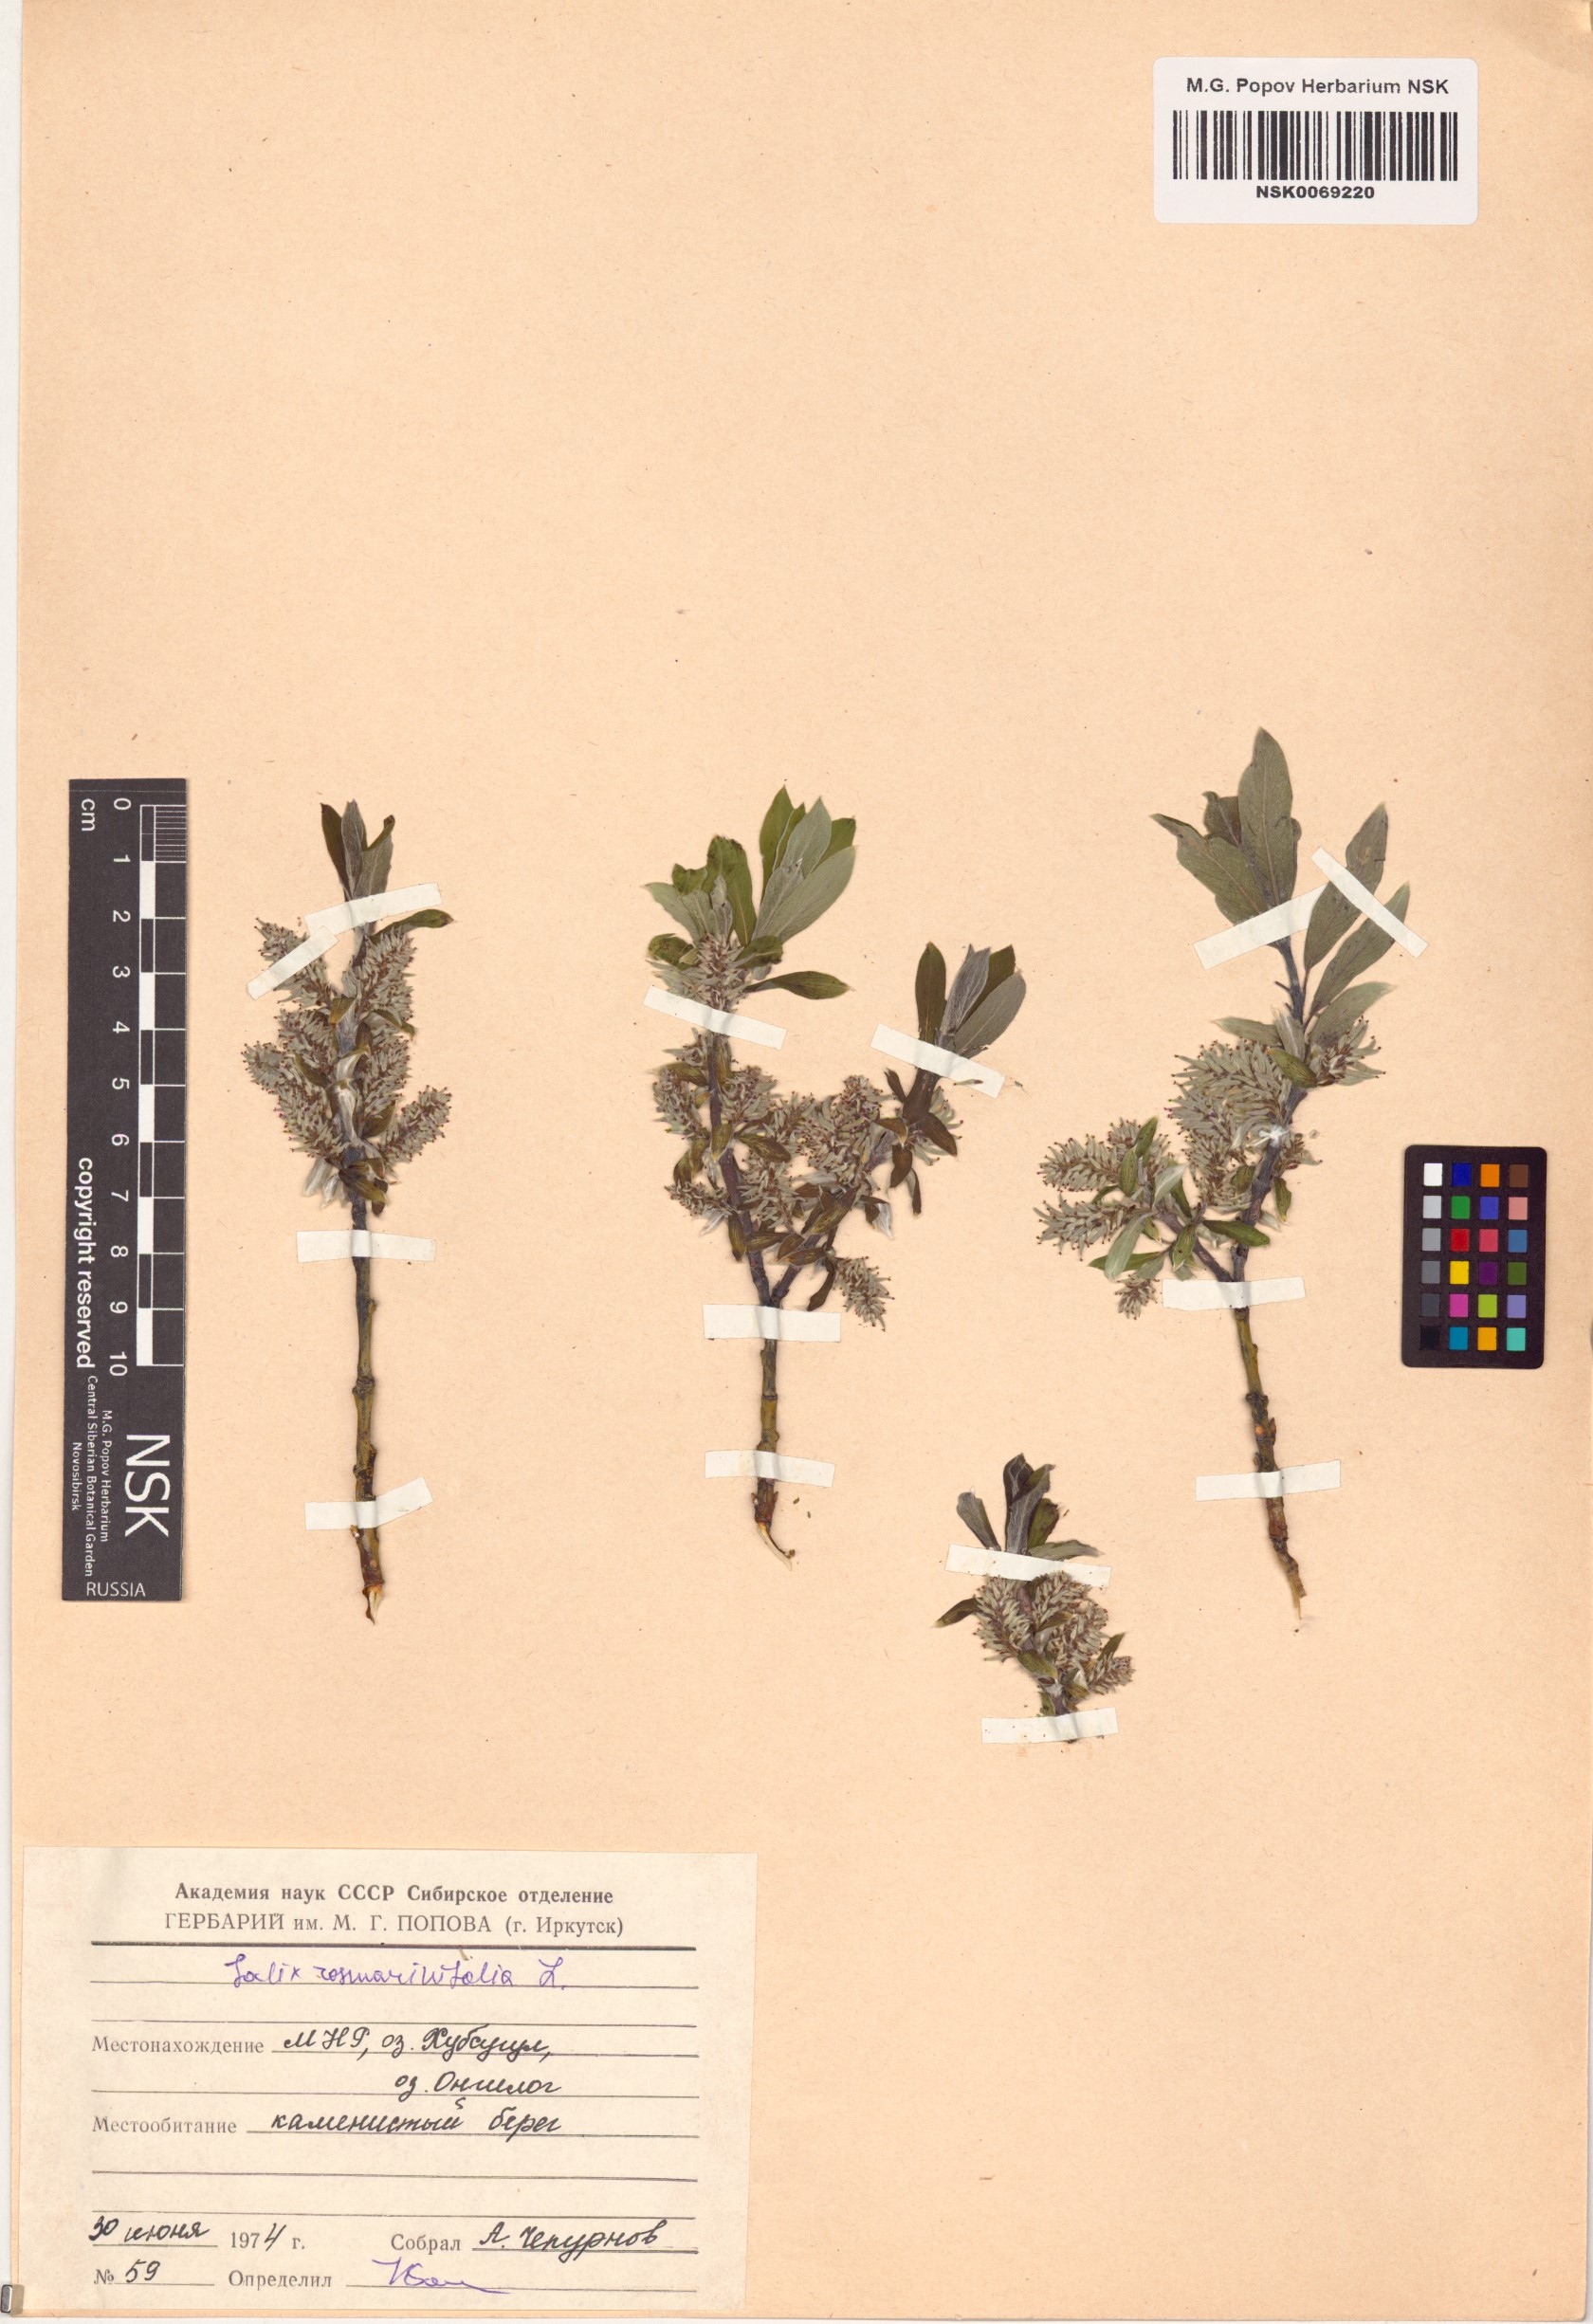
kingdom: Plantae
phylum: Tracheophyta
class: Magnoliopsida
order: Malpighiales
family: Salicaceae
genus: Salix
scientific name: Salix rosmarinifolia
